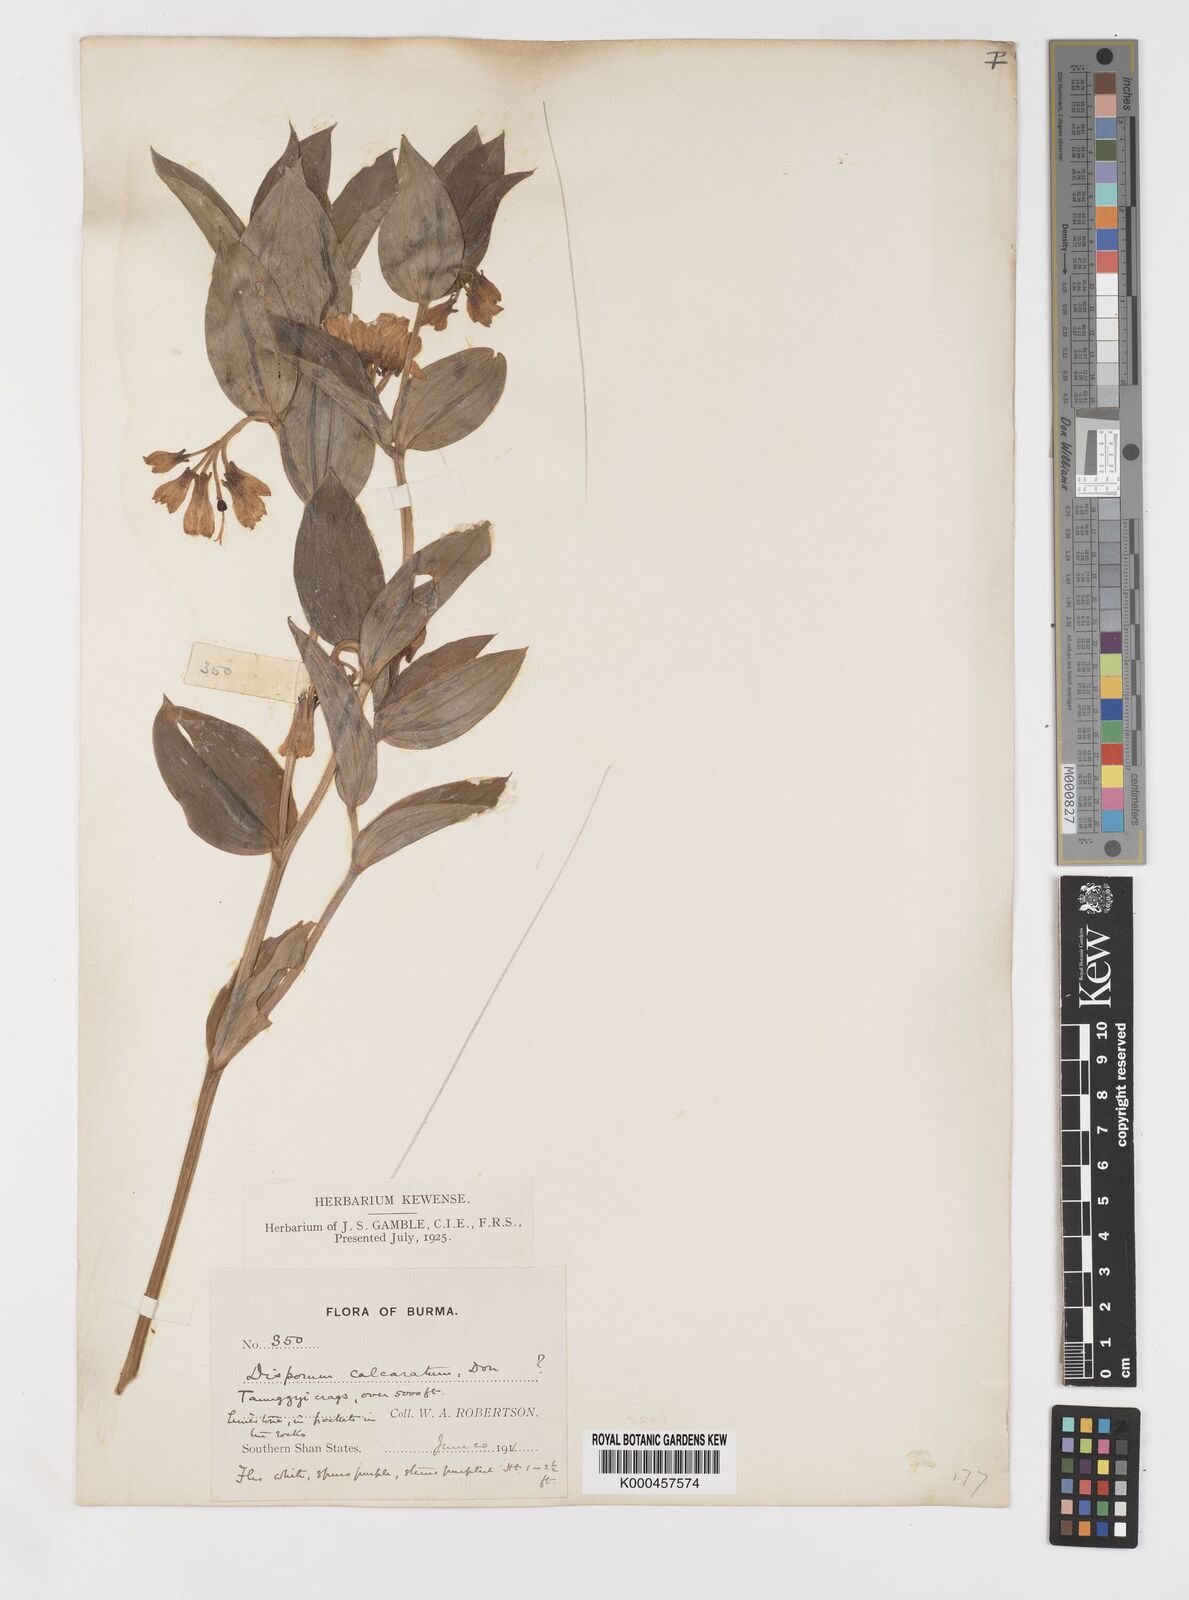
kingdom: Plantae
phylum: Tracheophyta
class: Liliopsida
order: Liliales
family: Colchicaceae
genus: Disporum
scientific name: Disporum calcaratum
